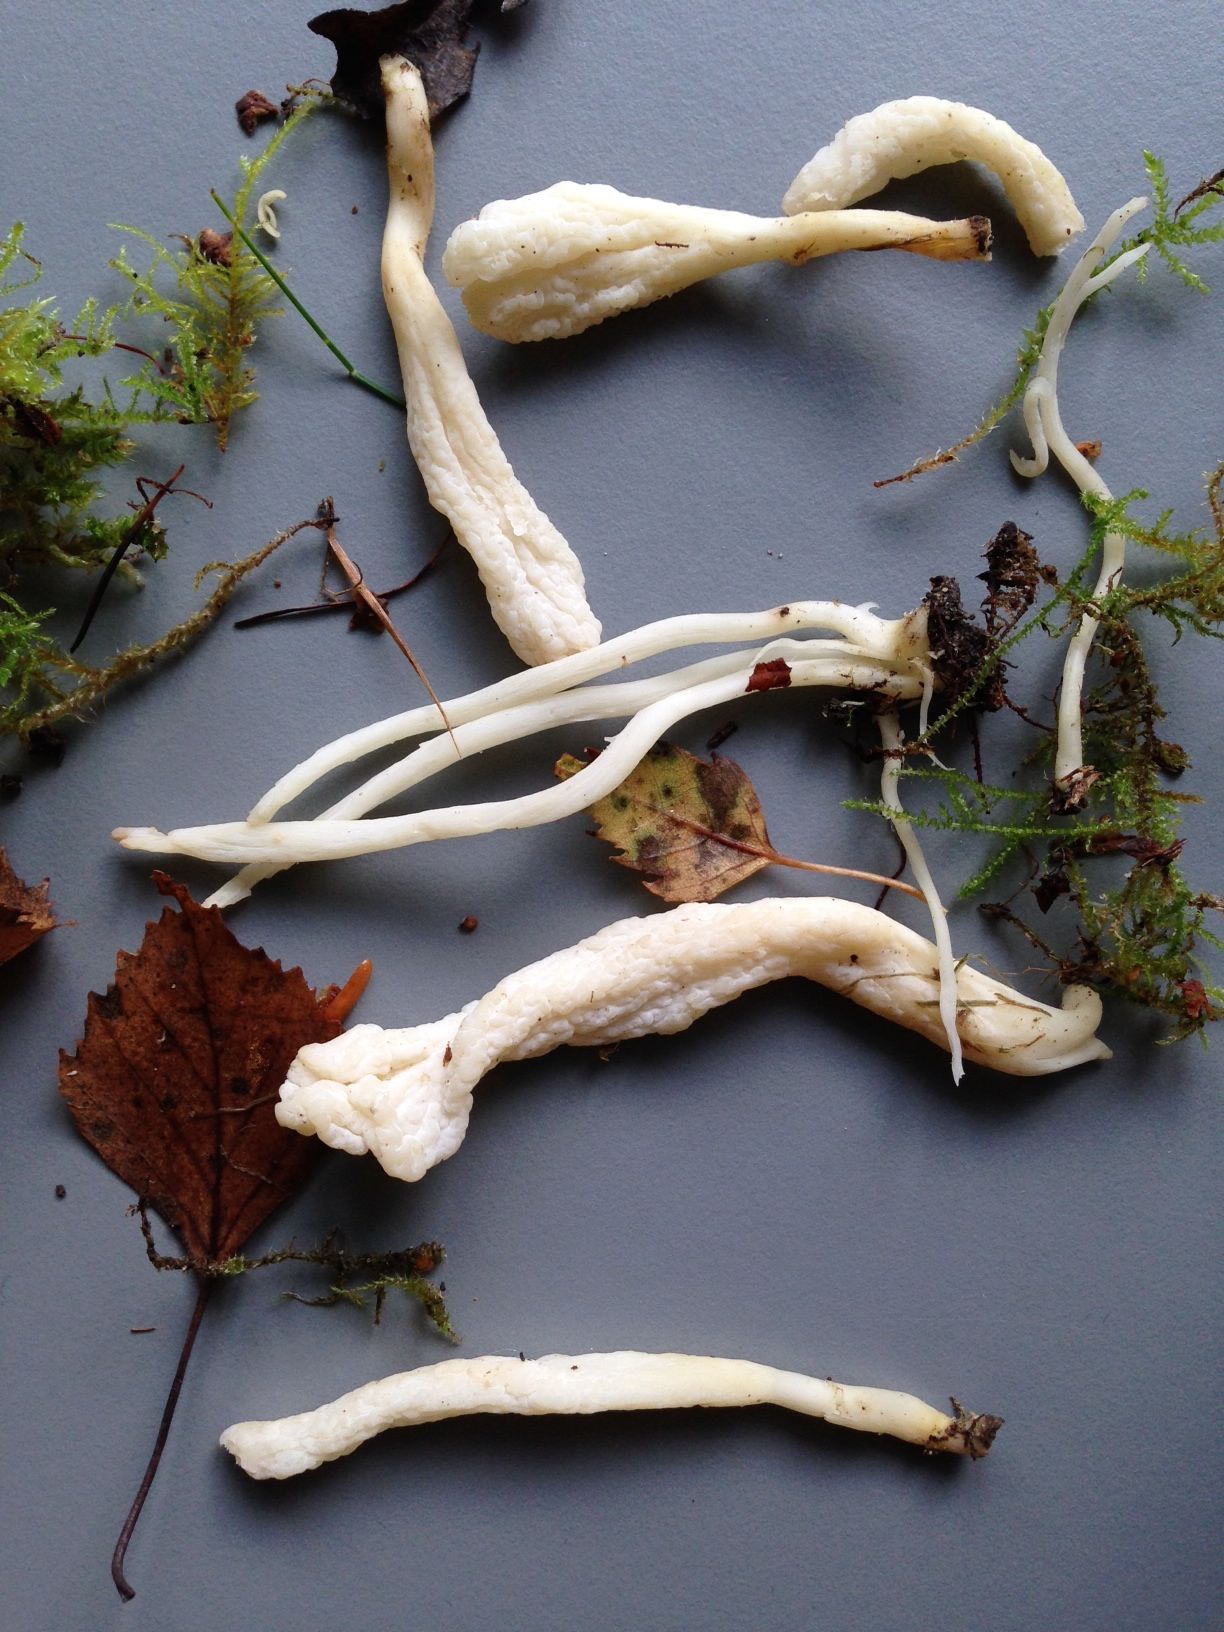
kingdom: Fungi
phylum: Basidiomycota
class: Agaricomycetes
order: Agaricales
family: Clavariaceae
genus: Clavaria
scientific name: Clavaria falcata
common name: hvid køllesvamp
